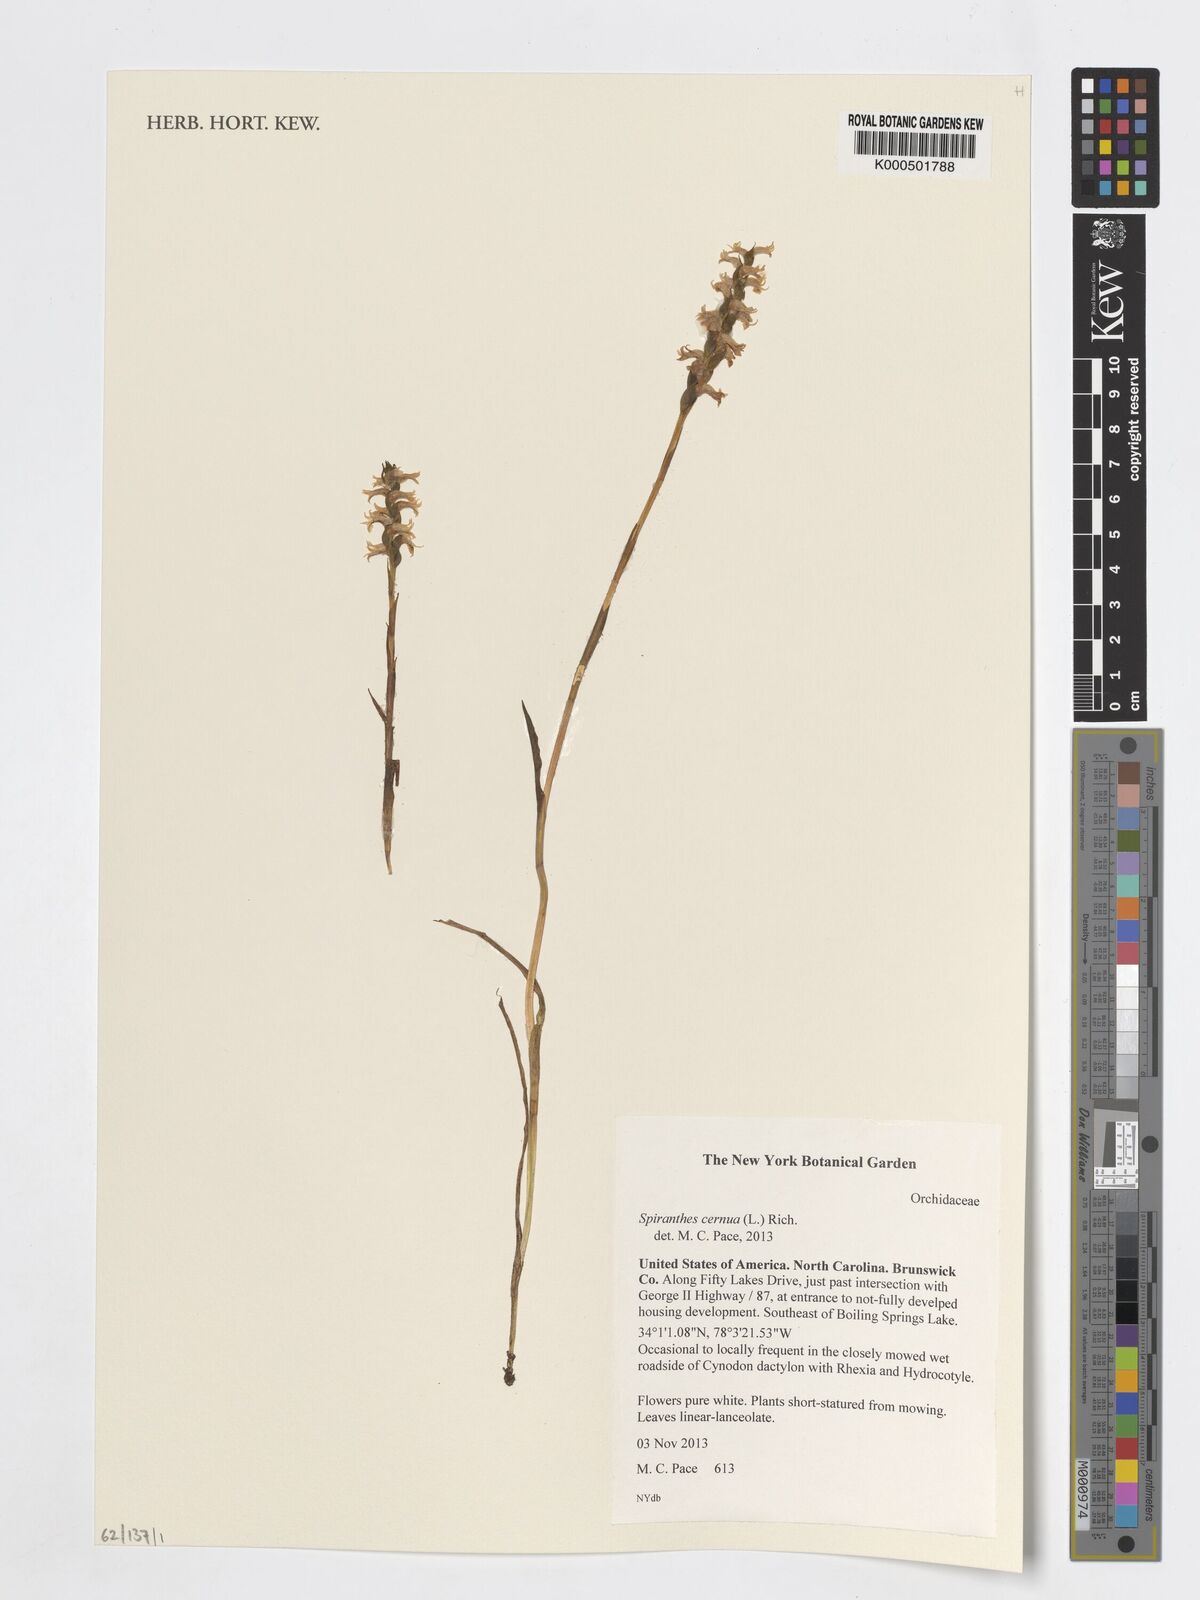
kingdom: Plantae
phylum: Tracheophyta
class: Liliopsida
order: Asparagales
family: Orchidaceae
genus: Spiranthes
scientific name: Spiranthes cernua
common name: Dropping ladies'-tresses
